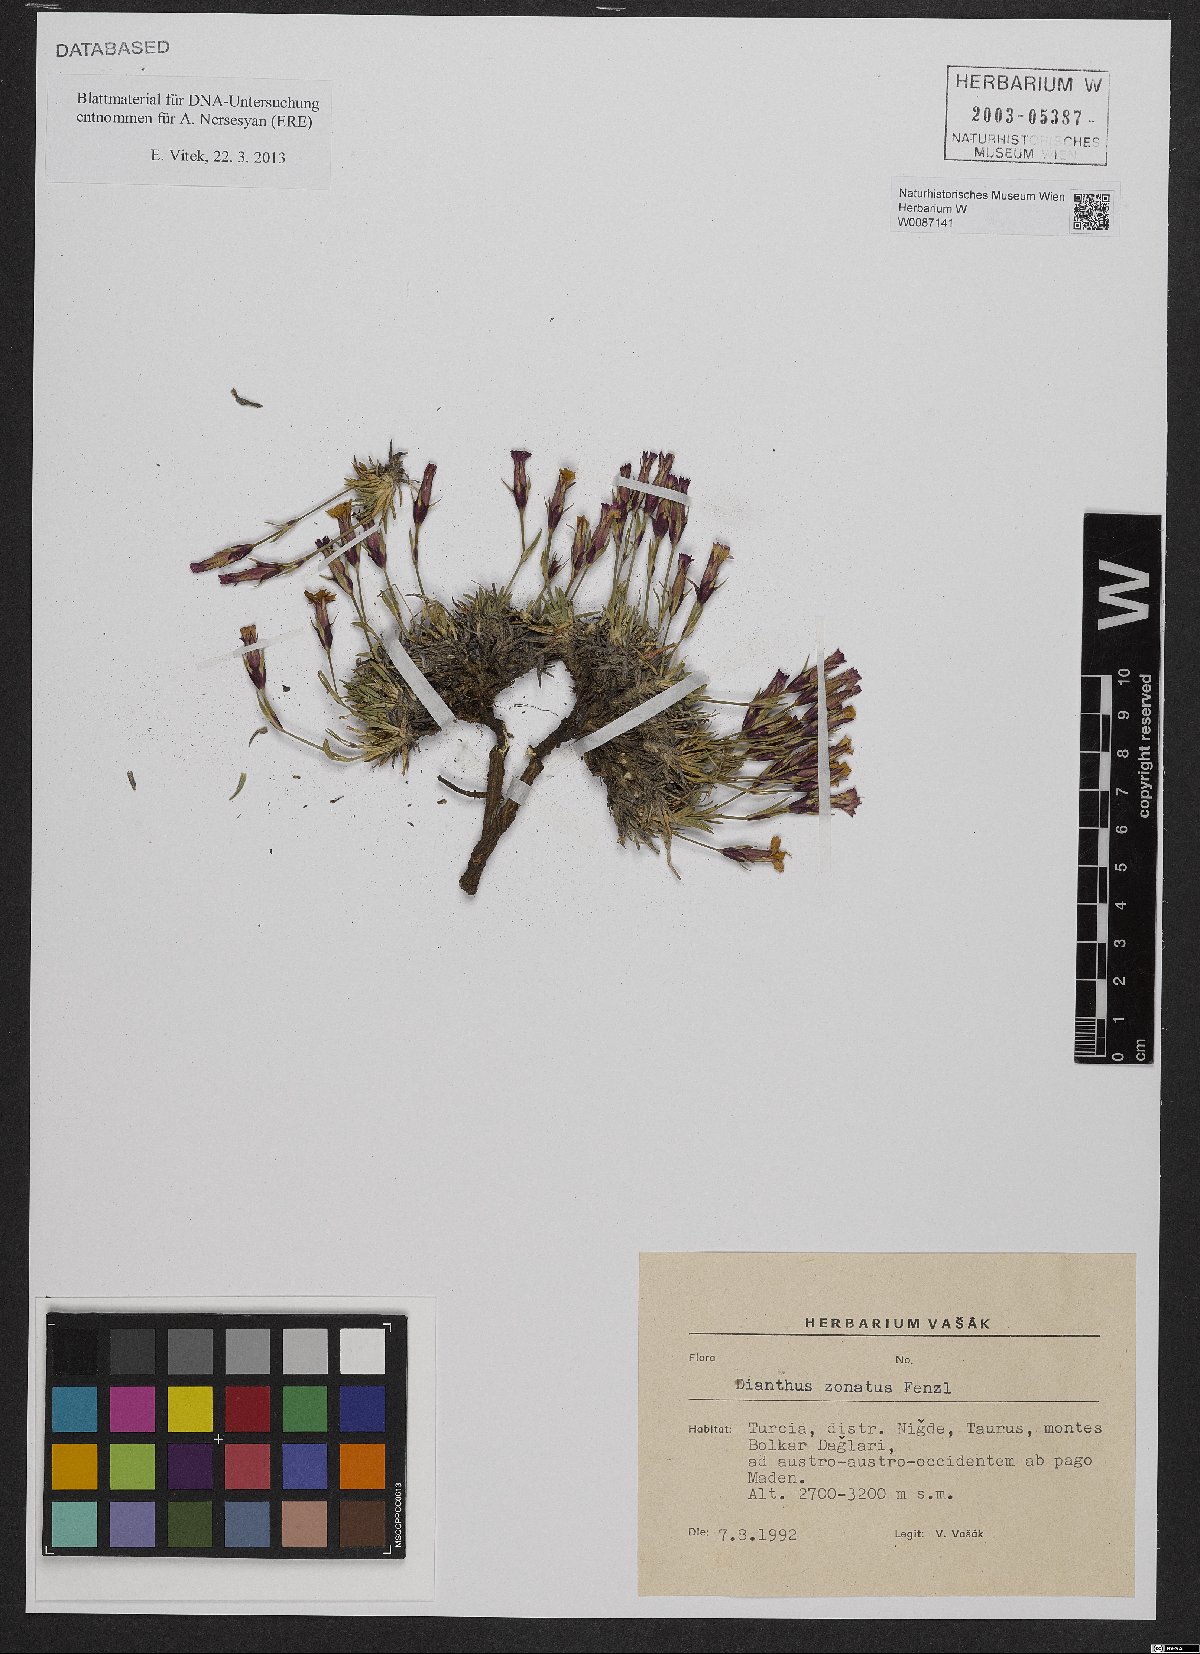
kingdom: Plantae
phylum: Tracheophyta
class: Magnoliopsida
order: Caryophyllales
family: Caryophyllaceae
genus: Dianthus
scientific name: Dianthus zonatus
